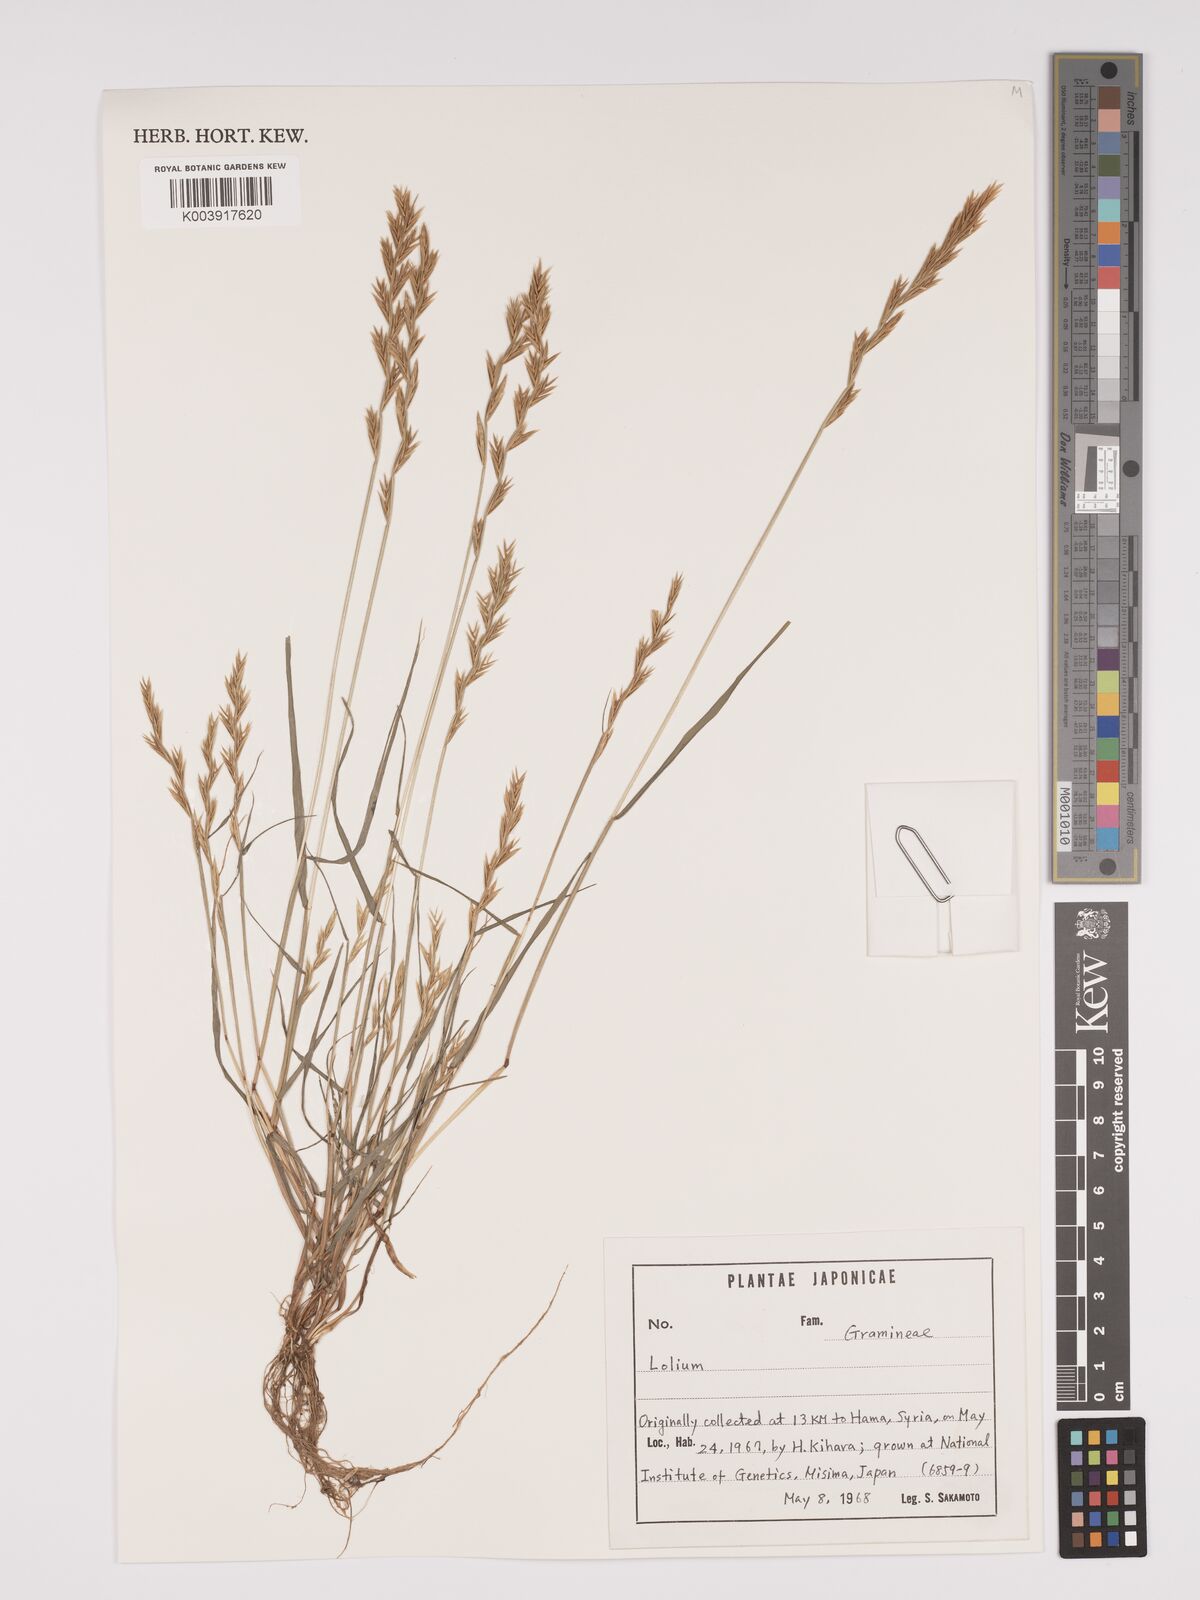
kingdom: Plantae
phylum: Tracheophyta
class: Liliopsida
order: Poales
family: Poaceae
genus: Lolium
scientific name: Lolium
